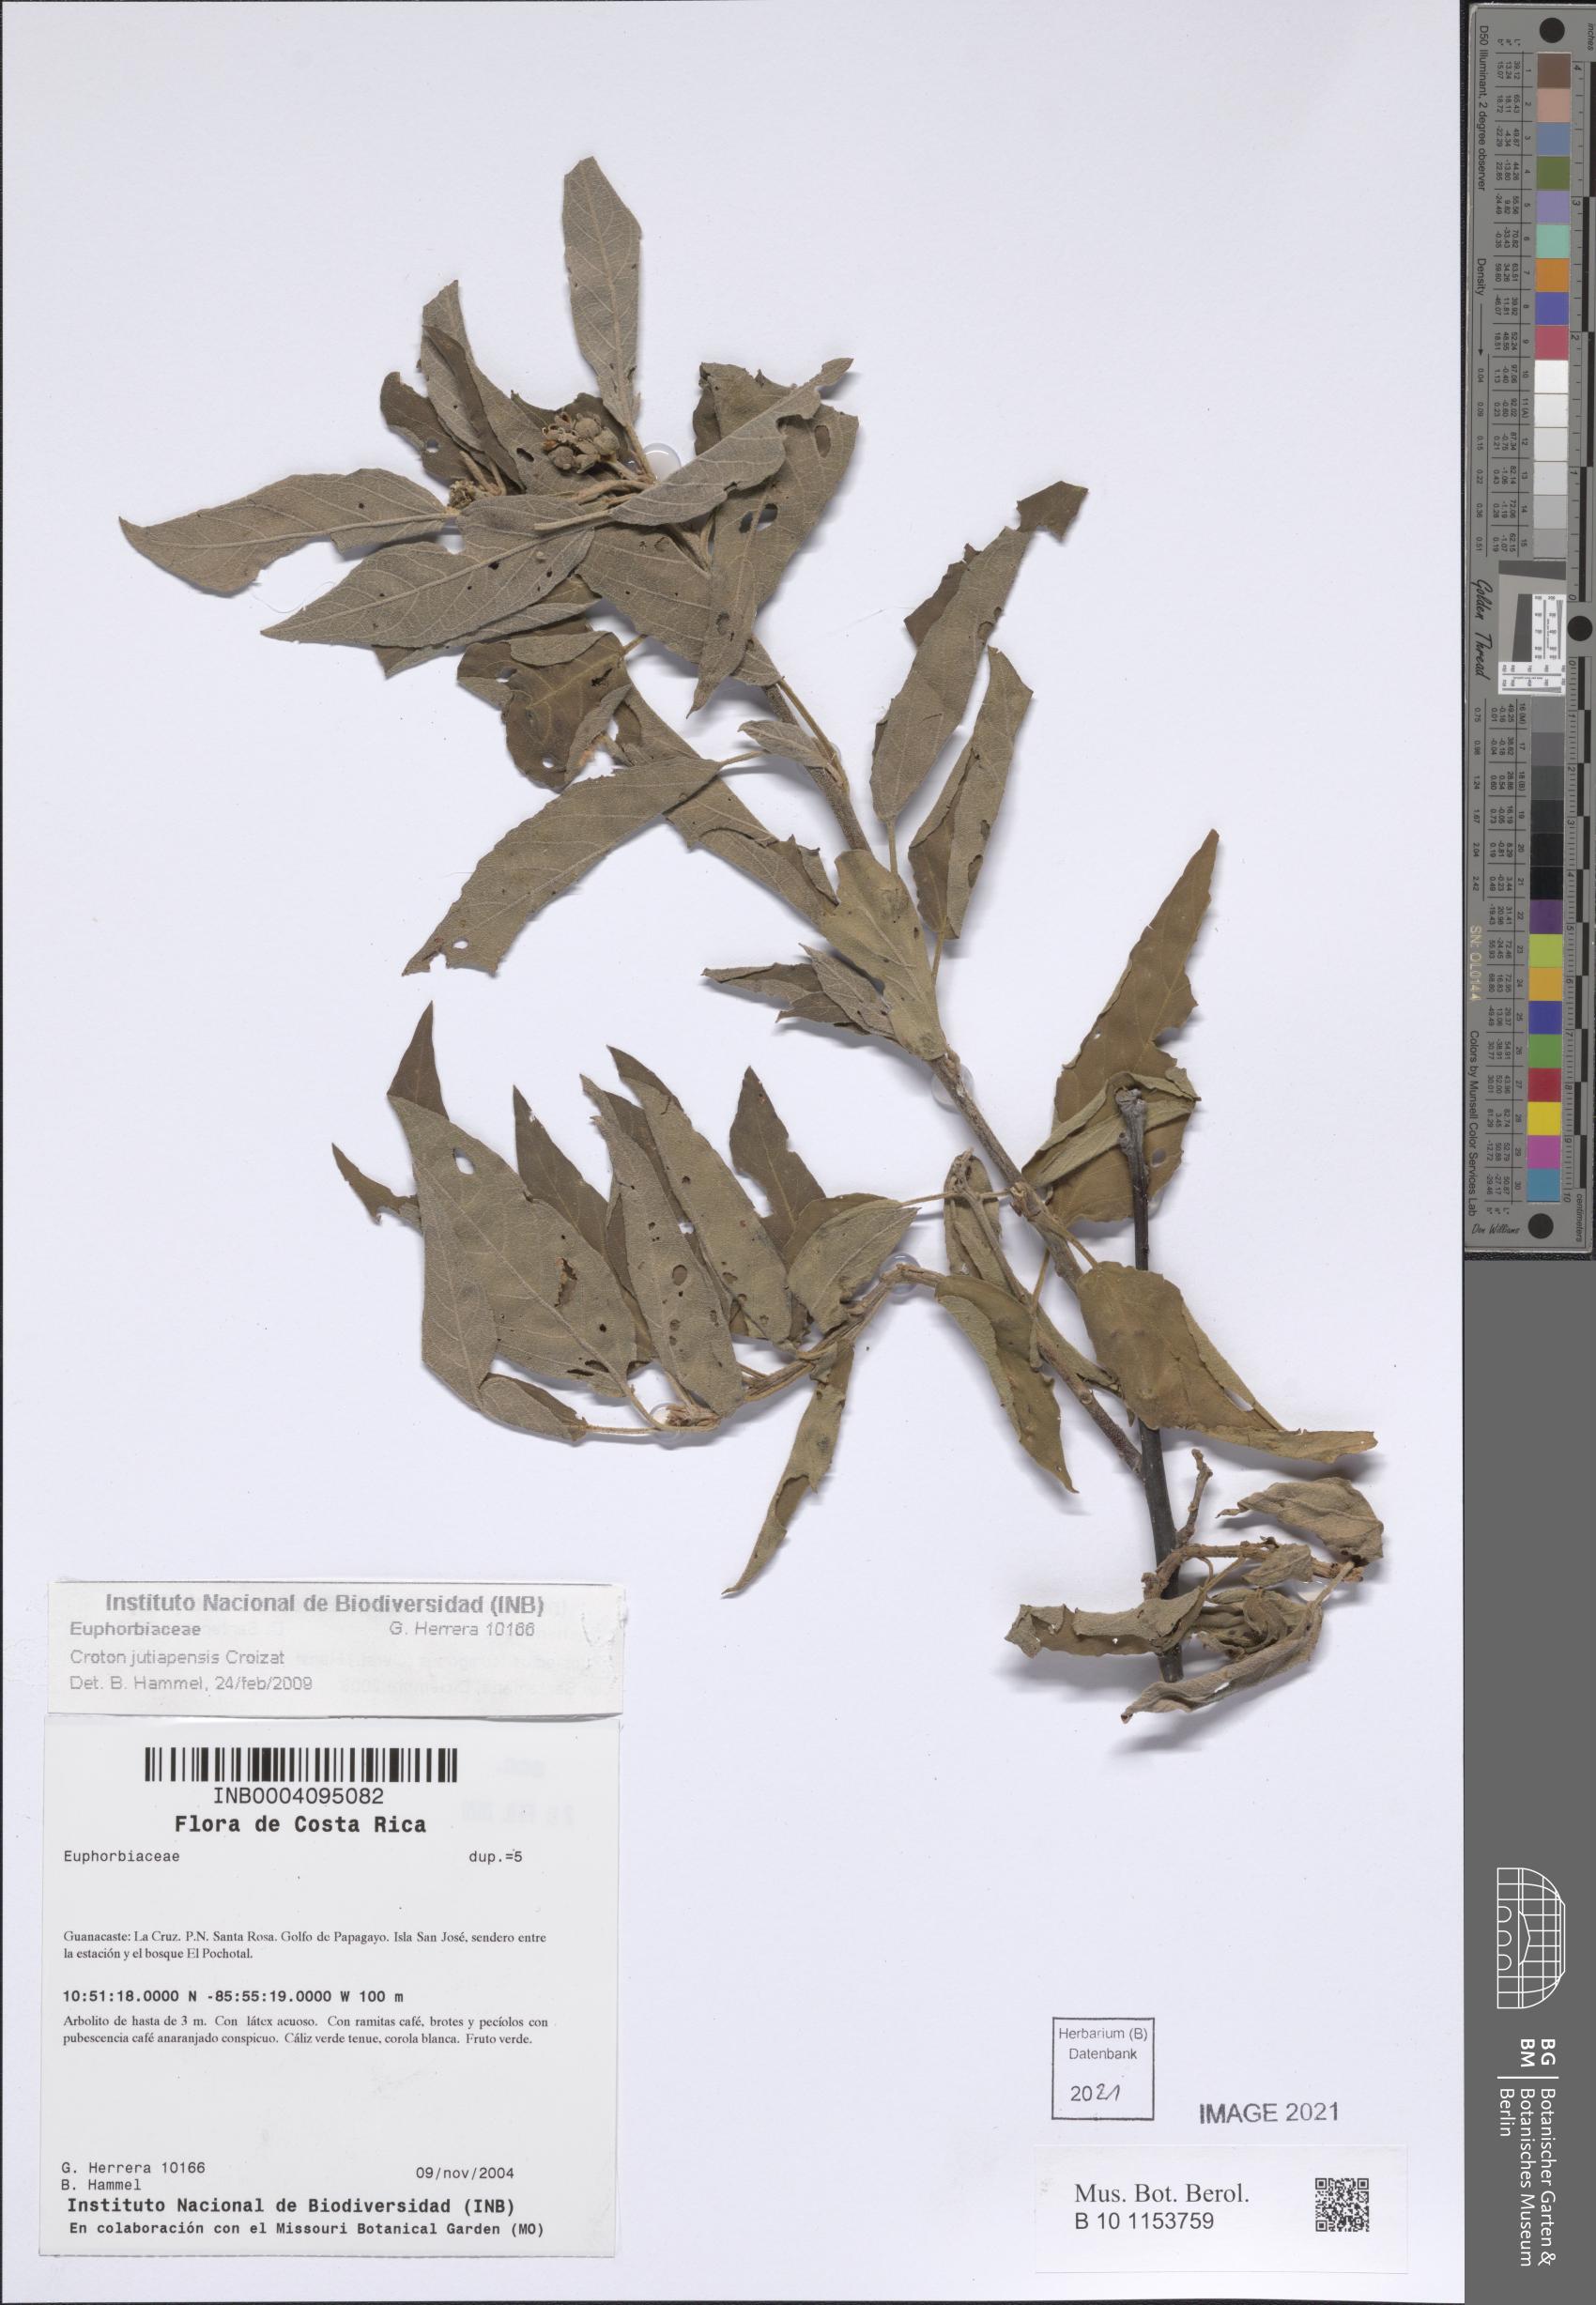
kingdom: Plantae
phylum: Tracheophyta
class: Magnoliopsida
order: Malpighiales
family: Euphorbiaceae
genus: Croton
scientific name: Croton jutiapensis
